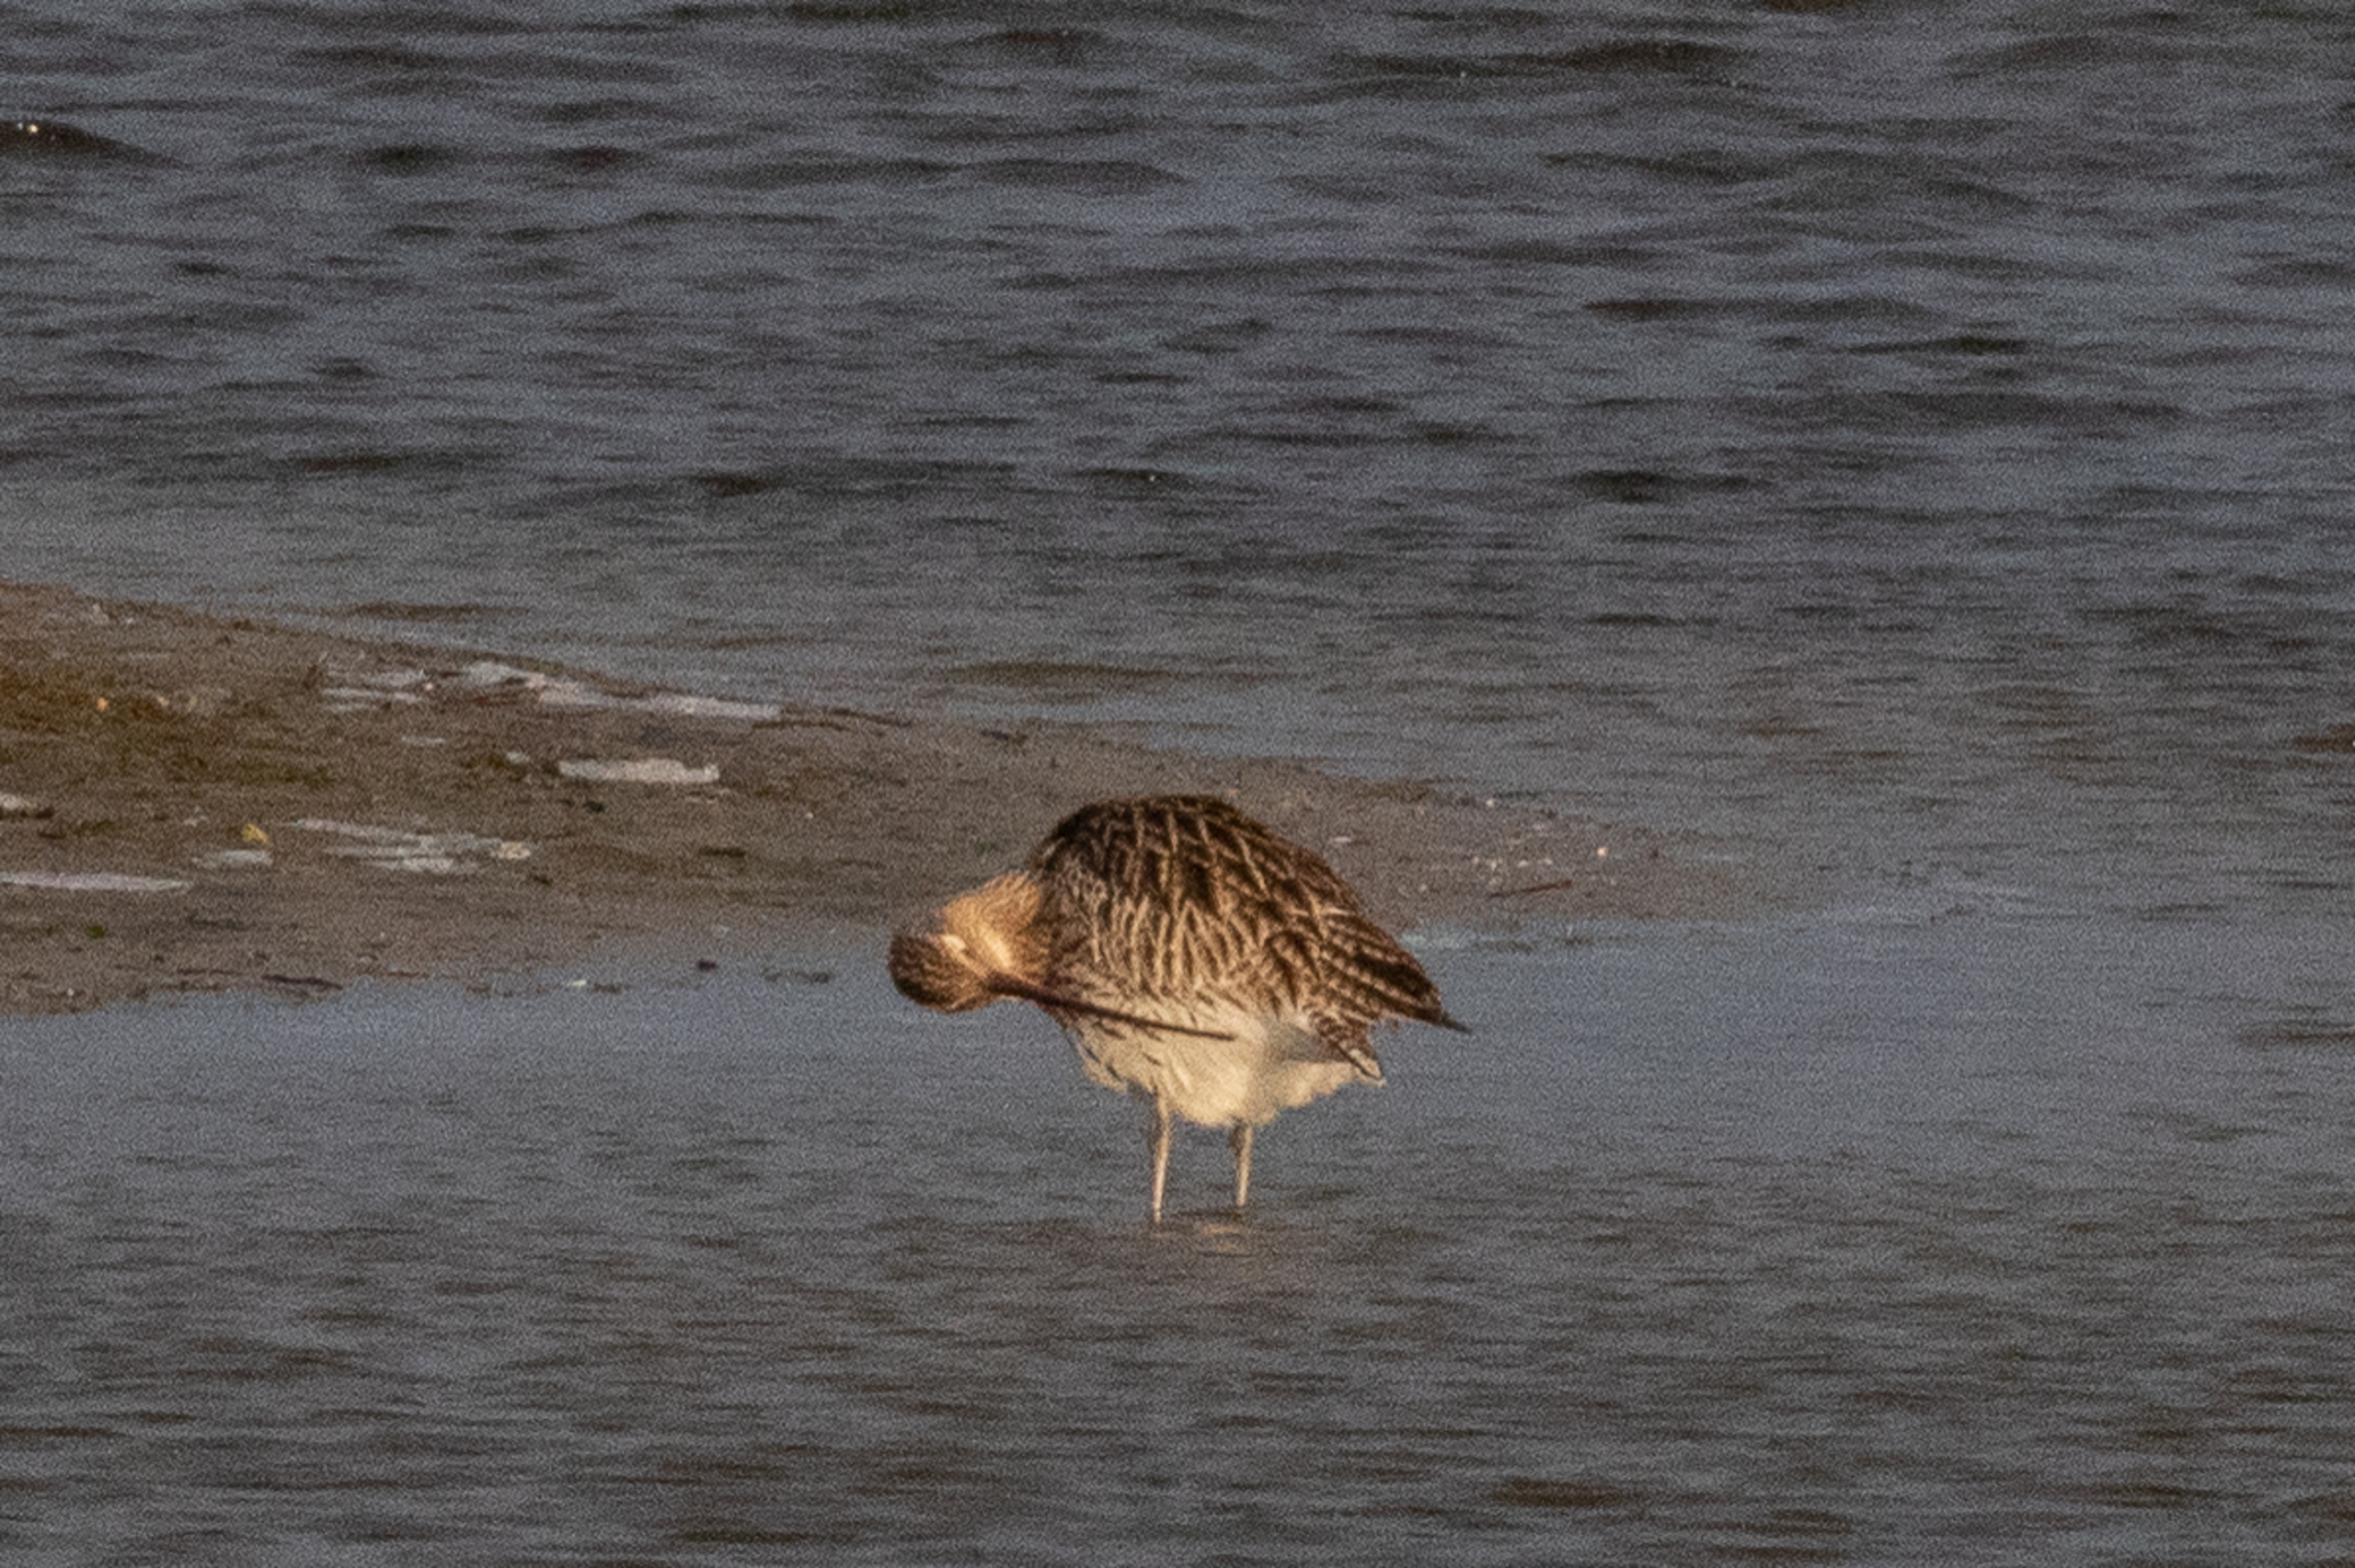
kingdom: Animalia
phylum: Chordata
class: Aves
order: Charadriiformes
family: Scolopacidae
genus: Numenius
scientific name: Numenius arquata
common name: Storspove
